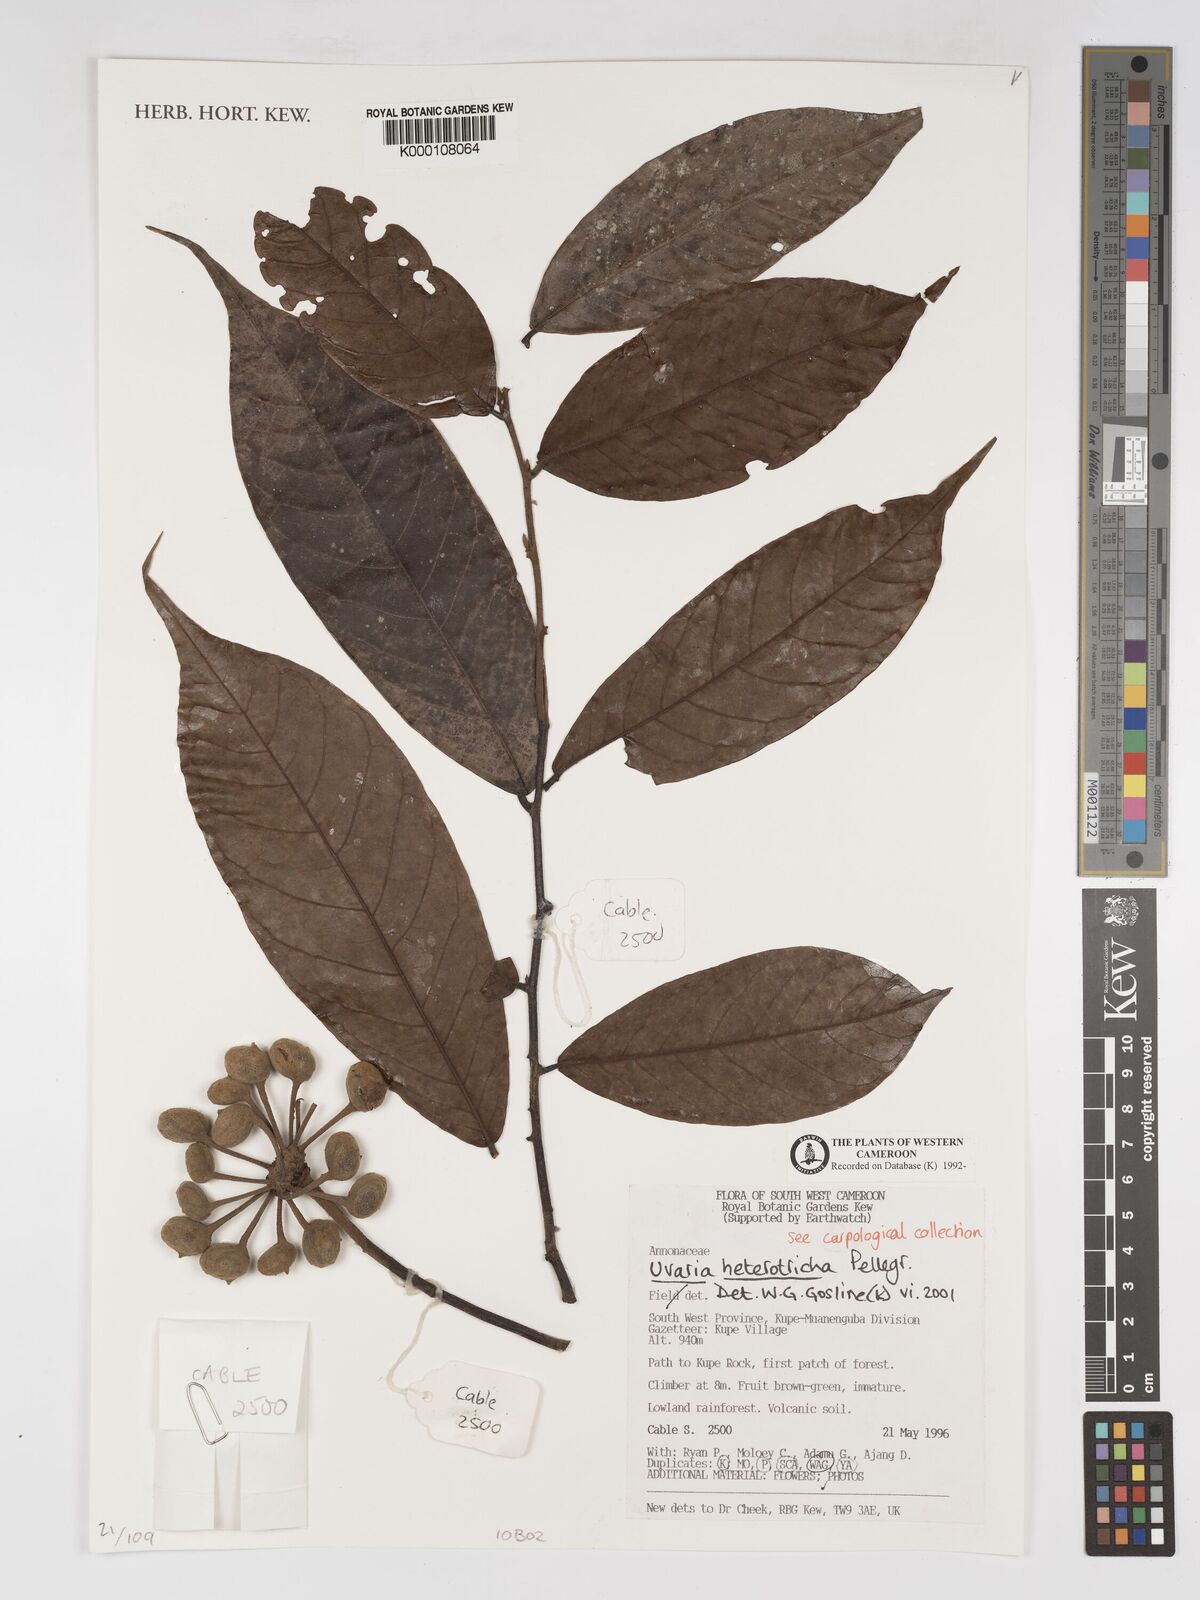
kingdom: Plantae
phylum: Tracheophyta
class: Magnoliopsida
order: Magnoliales
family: Annonaceae
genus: Uvaria
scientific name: Uvaria heterotricha
